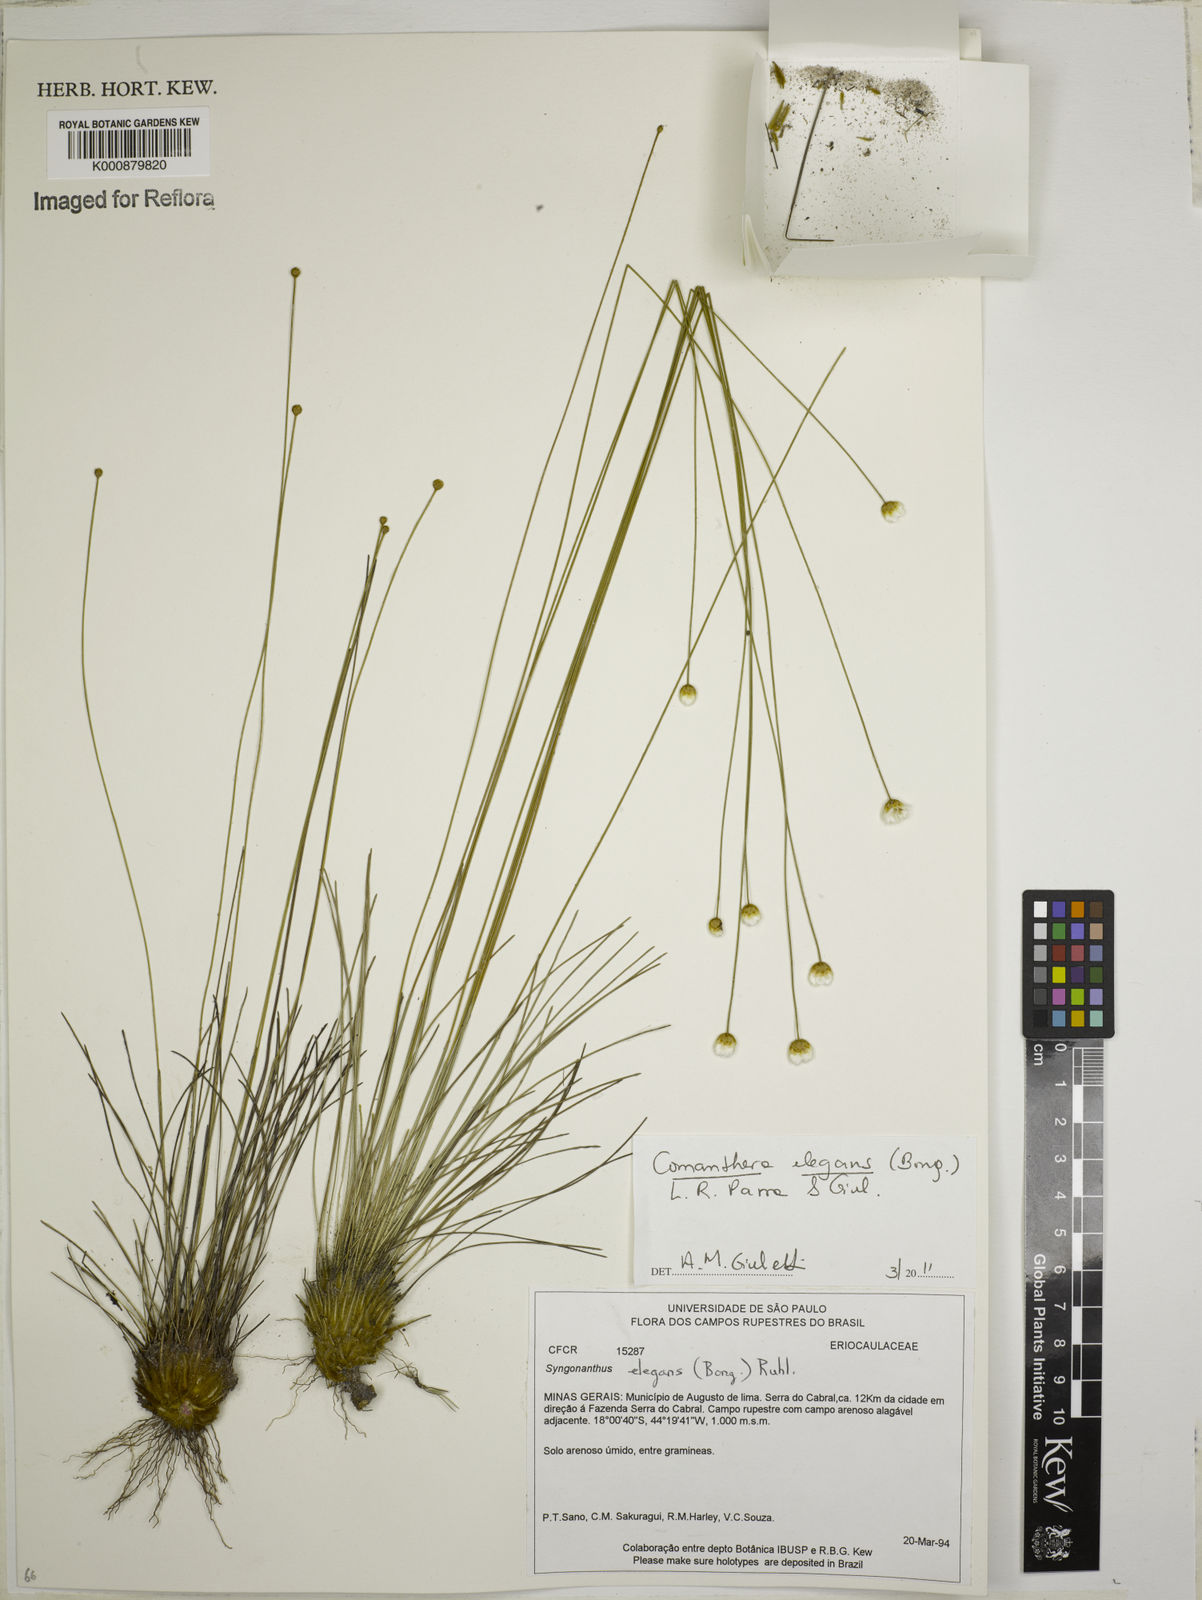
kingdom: Plantae
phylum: Tracheophyta
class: Liliopsida
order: Poales
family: Eriocaulaceae
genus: Comanthera
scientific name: Comanthera elegans
